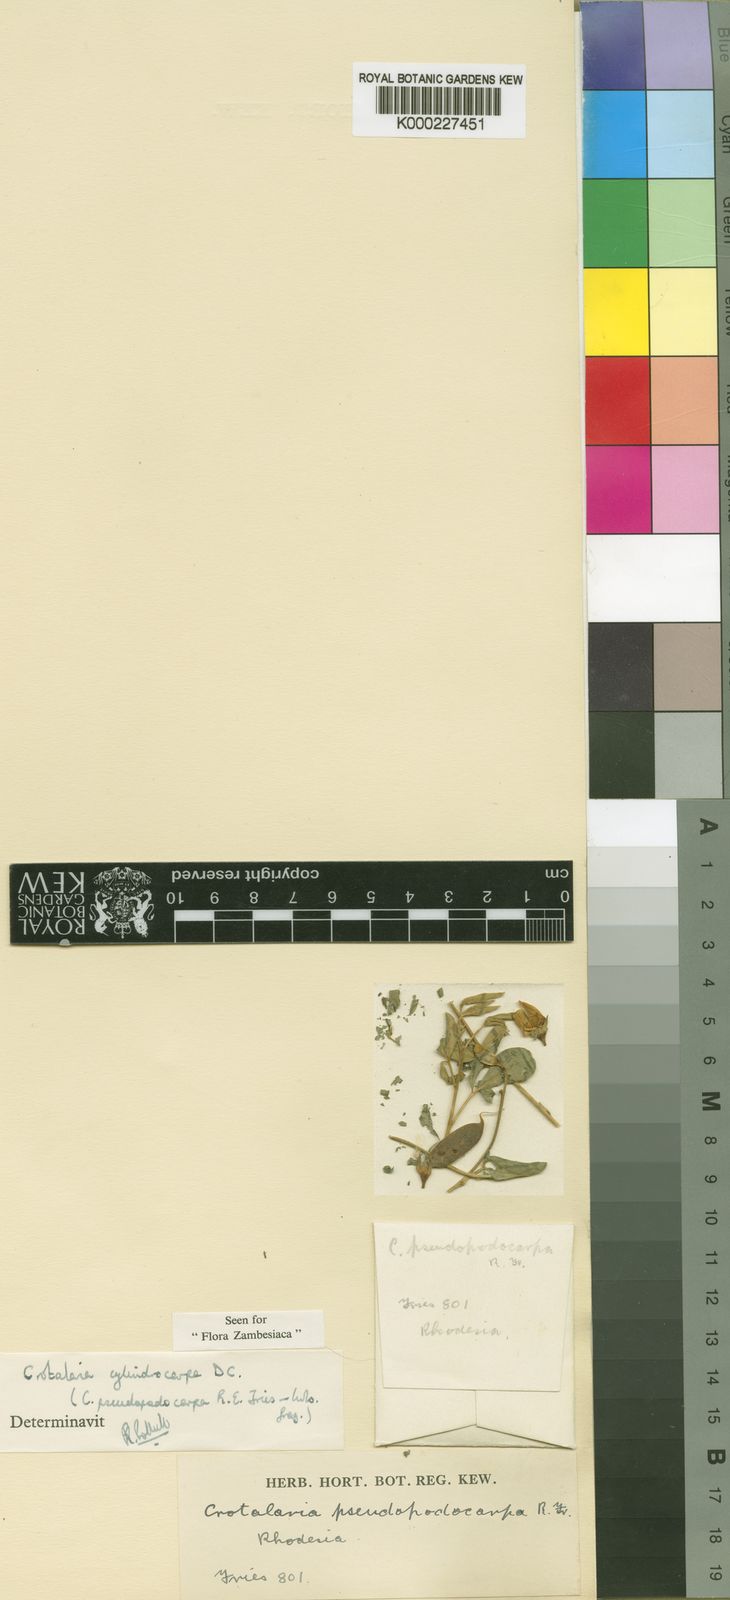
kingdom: Plantae
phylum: Tracheophyta
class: Magnoliopsida
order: Fabales
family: Fabaceae
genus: Crotalaria
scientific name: Crotalaria cylindrocarpa
